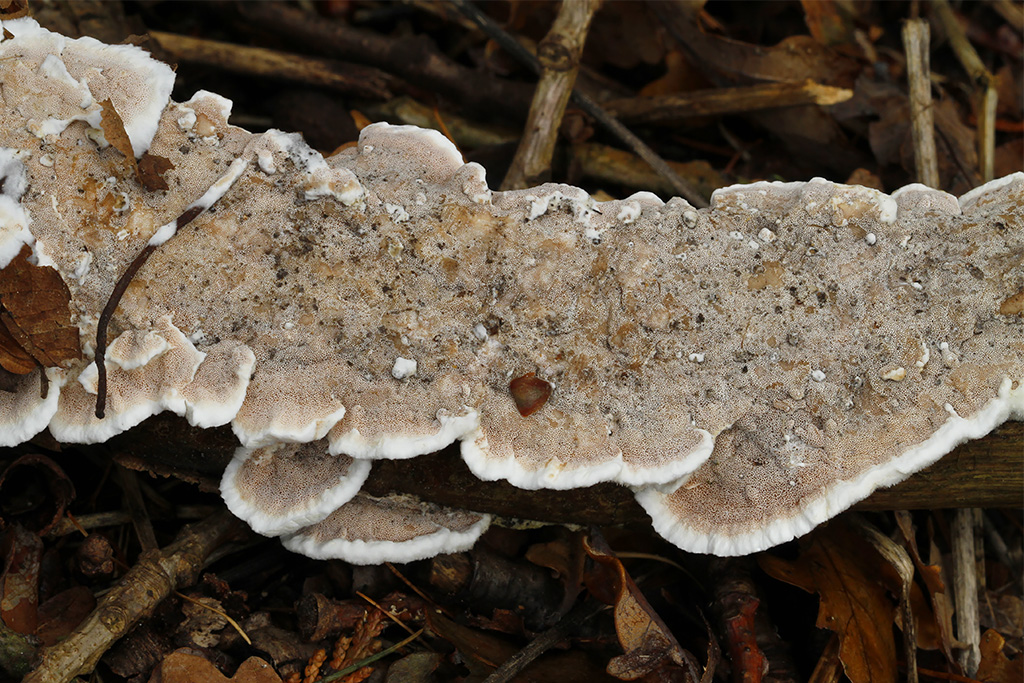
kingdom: Fungi
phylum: Basidiomycota
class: Agaricomycetes
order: Polyporales
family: Irpicaceae
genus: Vitreoporus
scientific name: Vitreoporus dichrous
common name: tofarvet foldporesvamp
